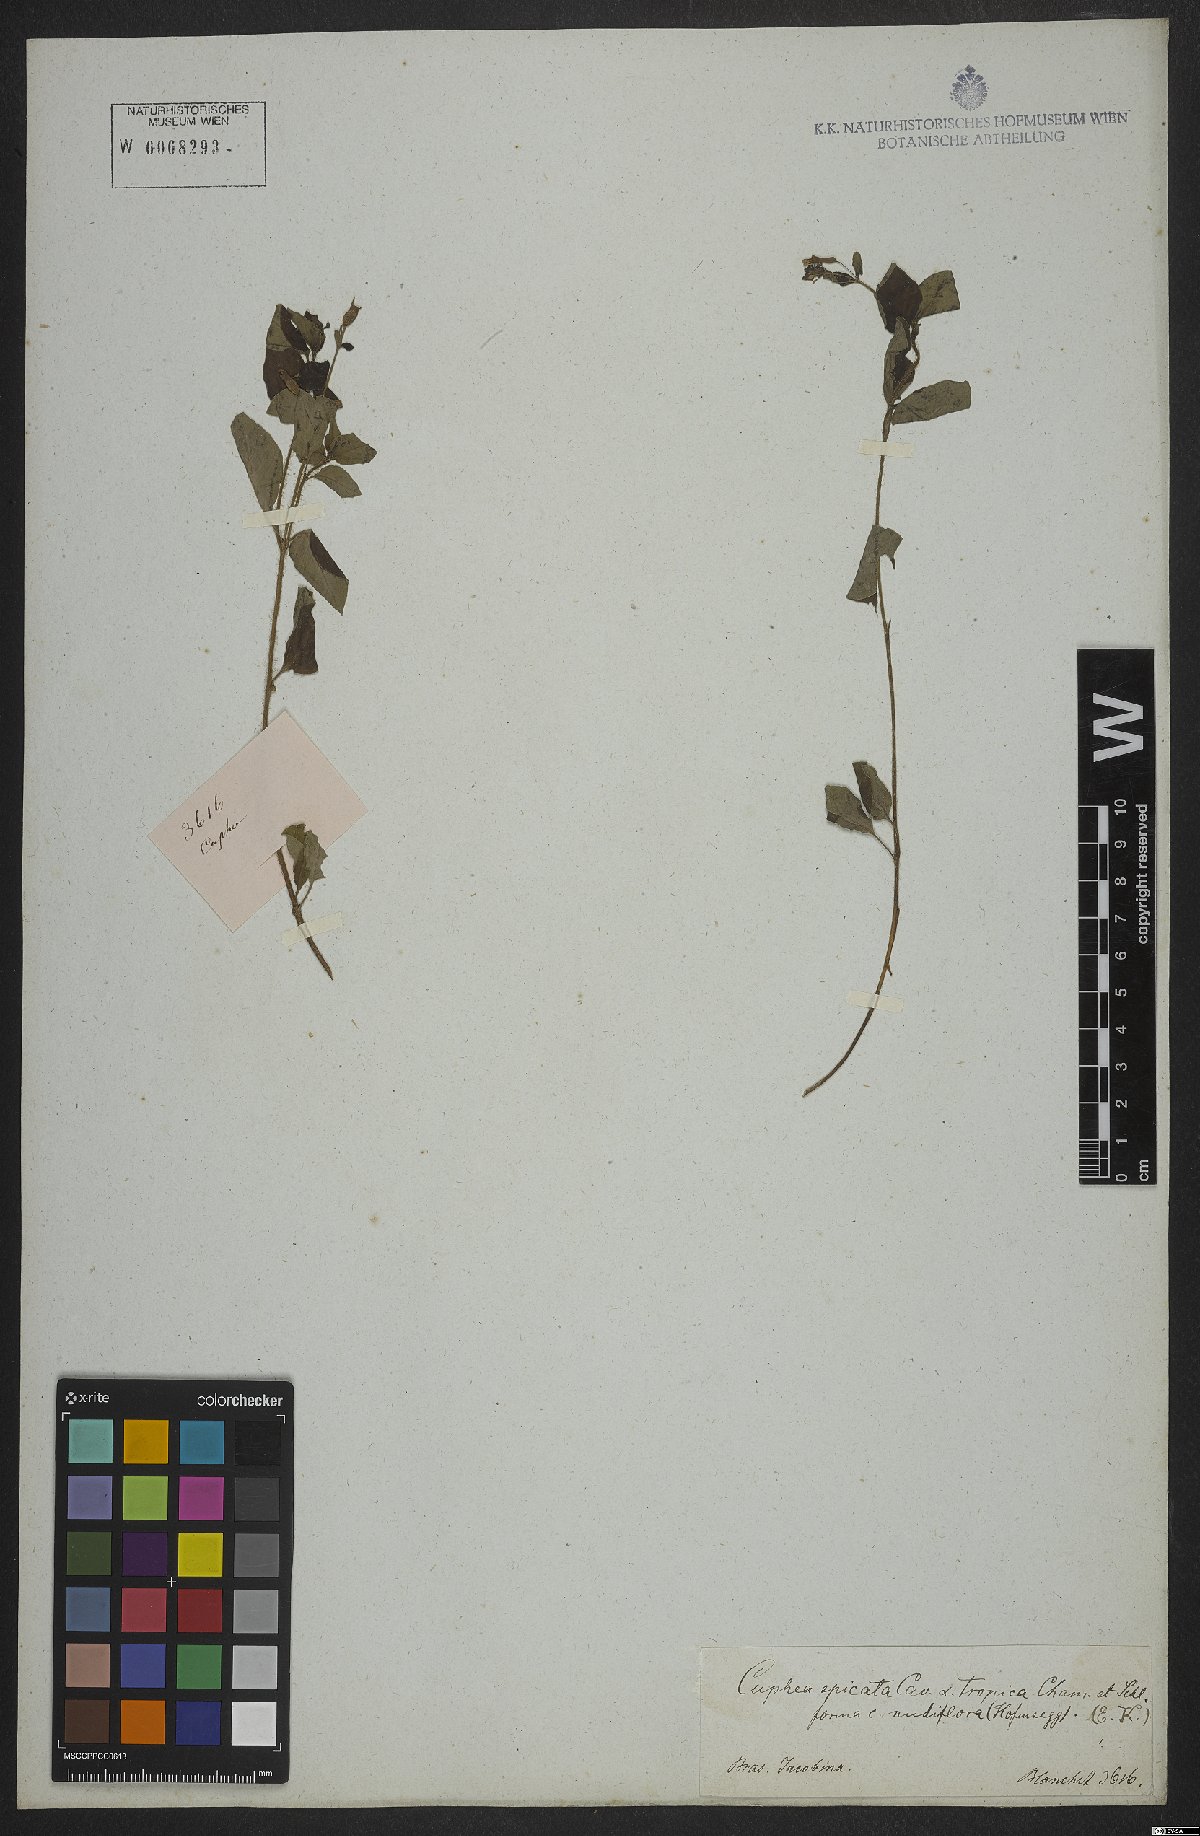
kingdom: Plantae
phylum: Tracheophyta
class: Magnoliopsida
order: Myrtales
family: Lythraceae
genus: Cuphea
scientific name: Cuphea racemosa
